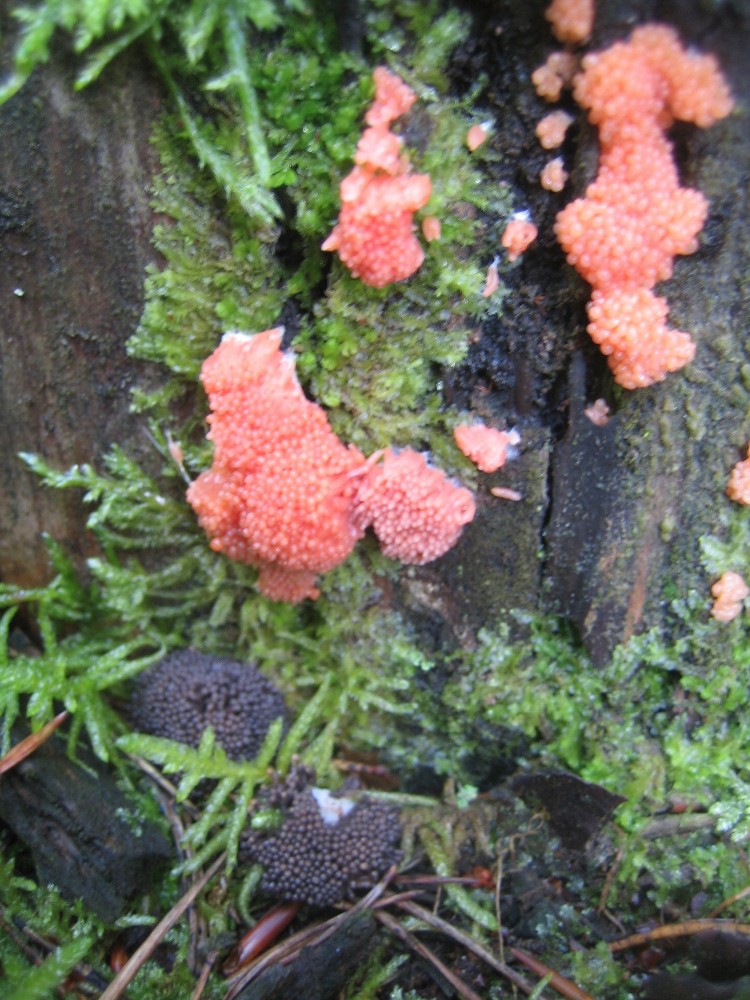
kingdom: Protozoa
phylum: Mycetozoa
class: Myxomycetes
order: Cribrariales
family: Tubiferaceae
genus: Tubifera
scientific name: Tubifera ferruginosa
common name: kanel-støvrør
